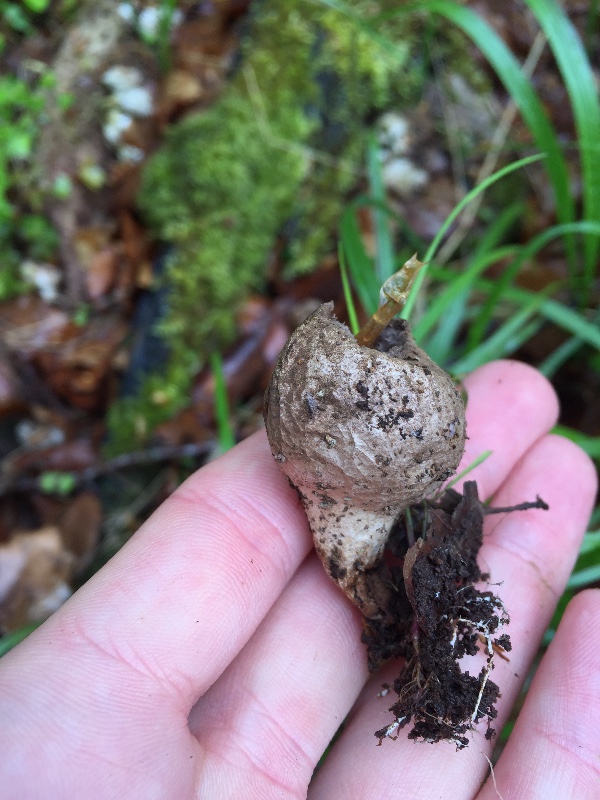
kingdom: Fungi
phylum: Basidiomycota
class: Agaricomycetes
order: Agaricales
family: Lycoperdaceae
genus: Apioperdon
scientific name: Apioperdon pyriforme
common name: pære-støvbold
